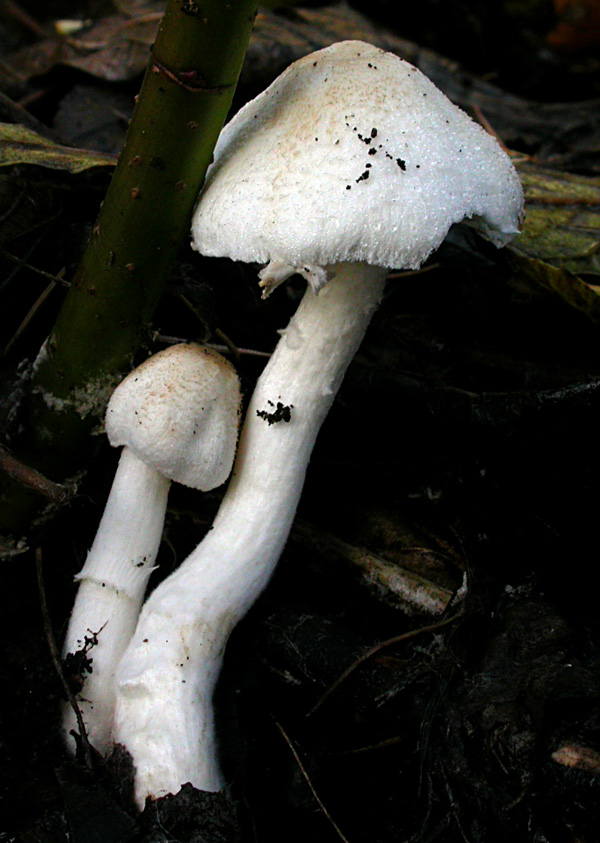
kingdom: Fungi
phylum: Basidiomycota
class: Agaricomycetes
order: Agaricales
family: Agaricaceae
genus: Leucoagaricus
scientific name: Leucoagaricus sericifer
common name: hvid silkehat
